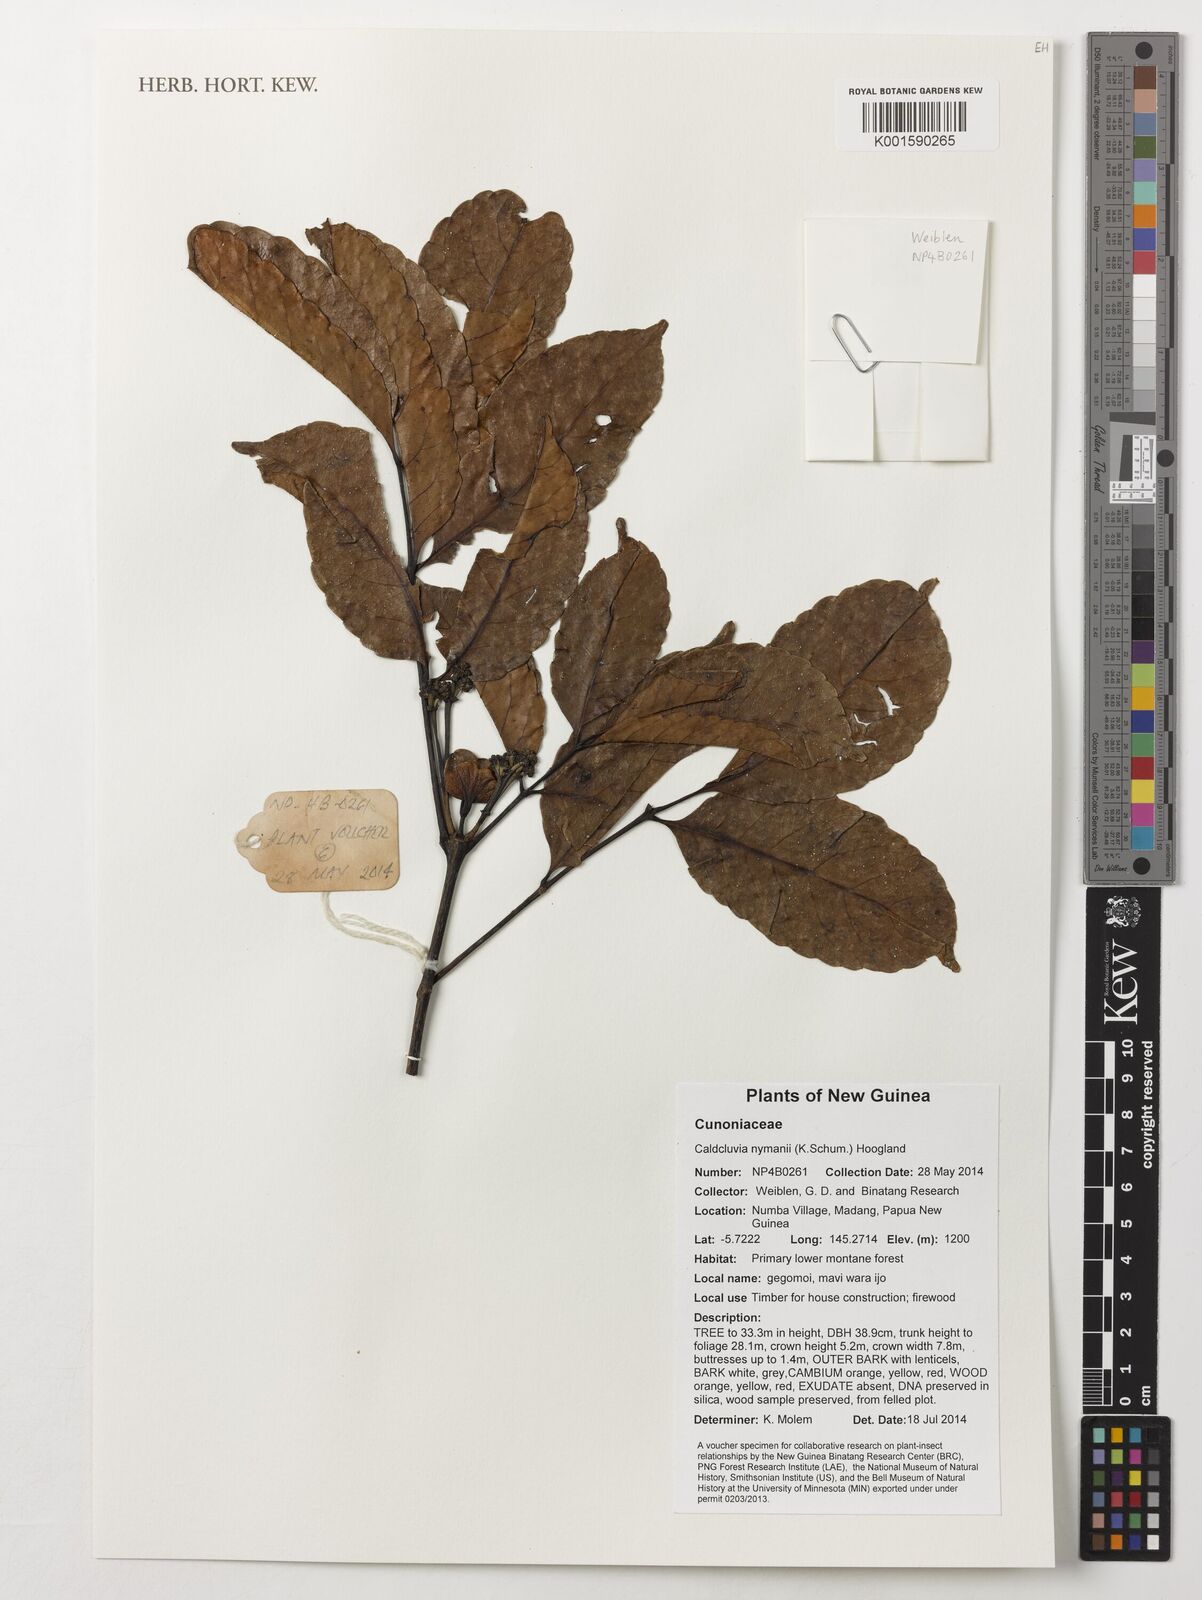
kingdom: Plantae
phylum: Tracheophyta
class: Magnoliopsida
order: Oxalidales
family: Cunoniaceae
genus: Opocunonia
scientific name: Opocunonia nymanii
